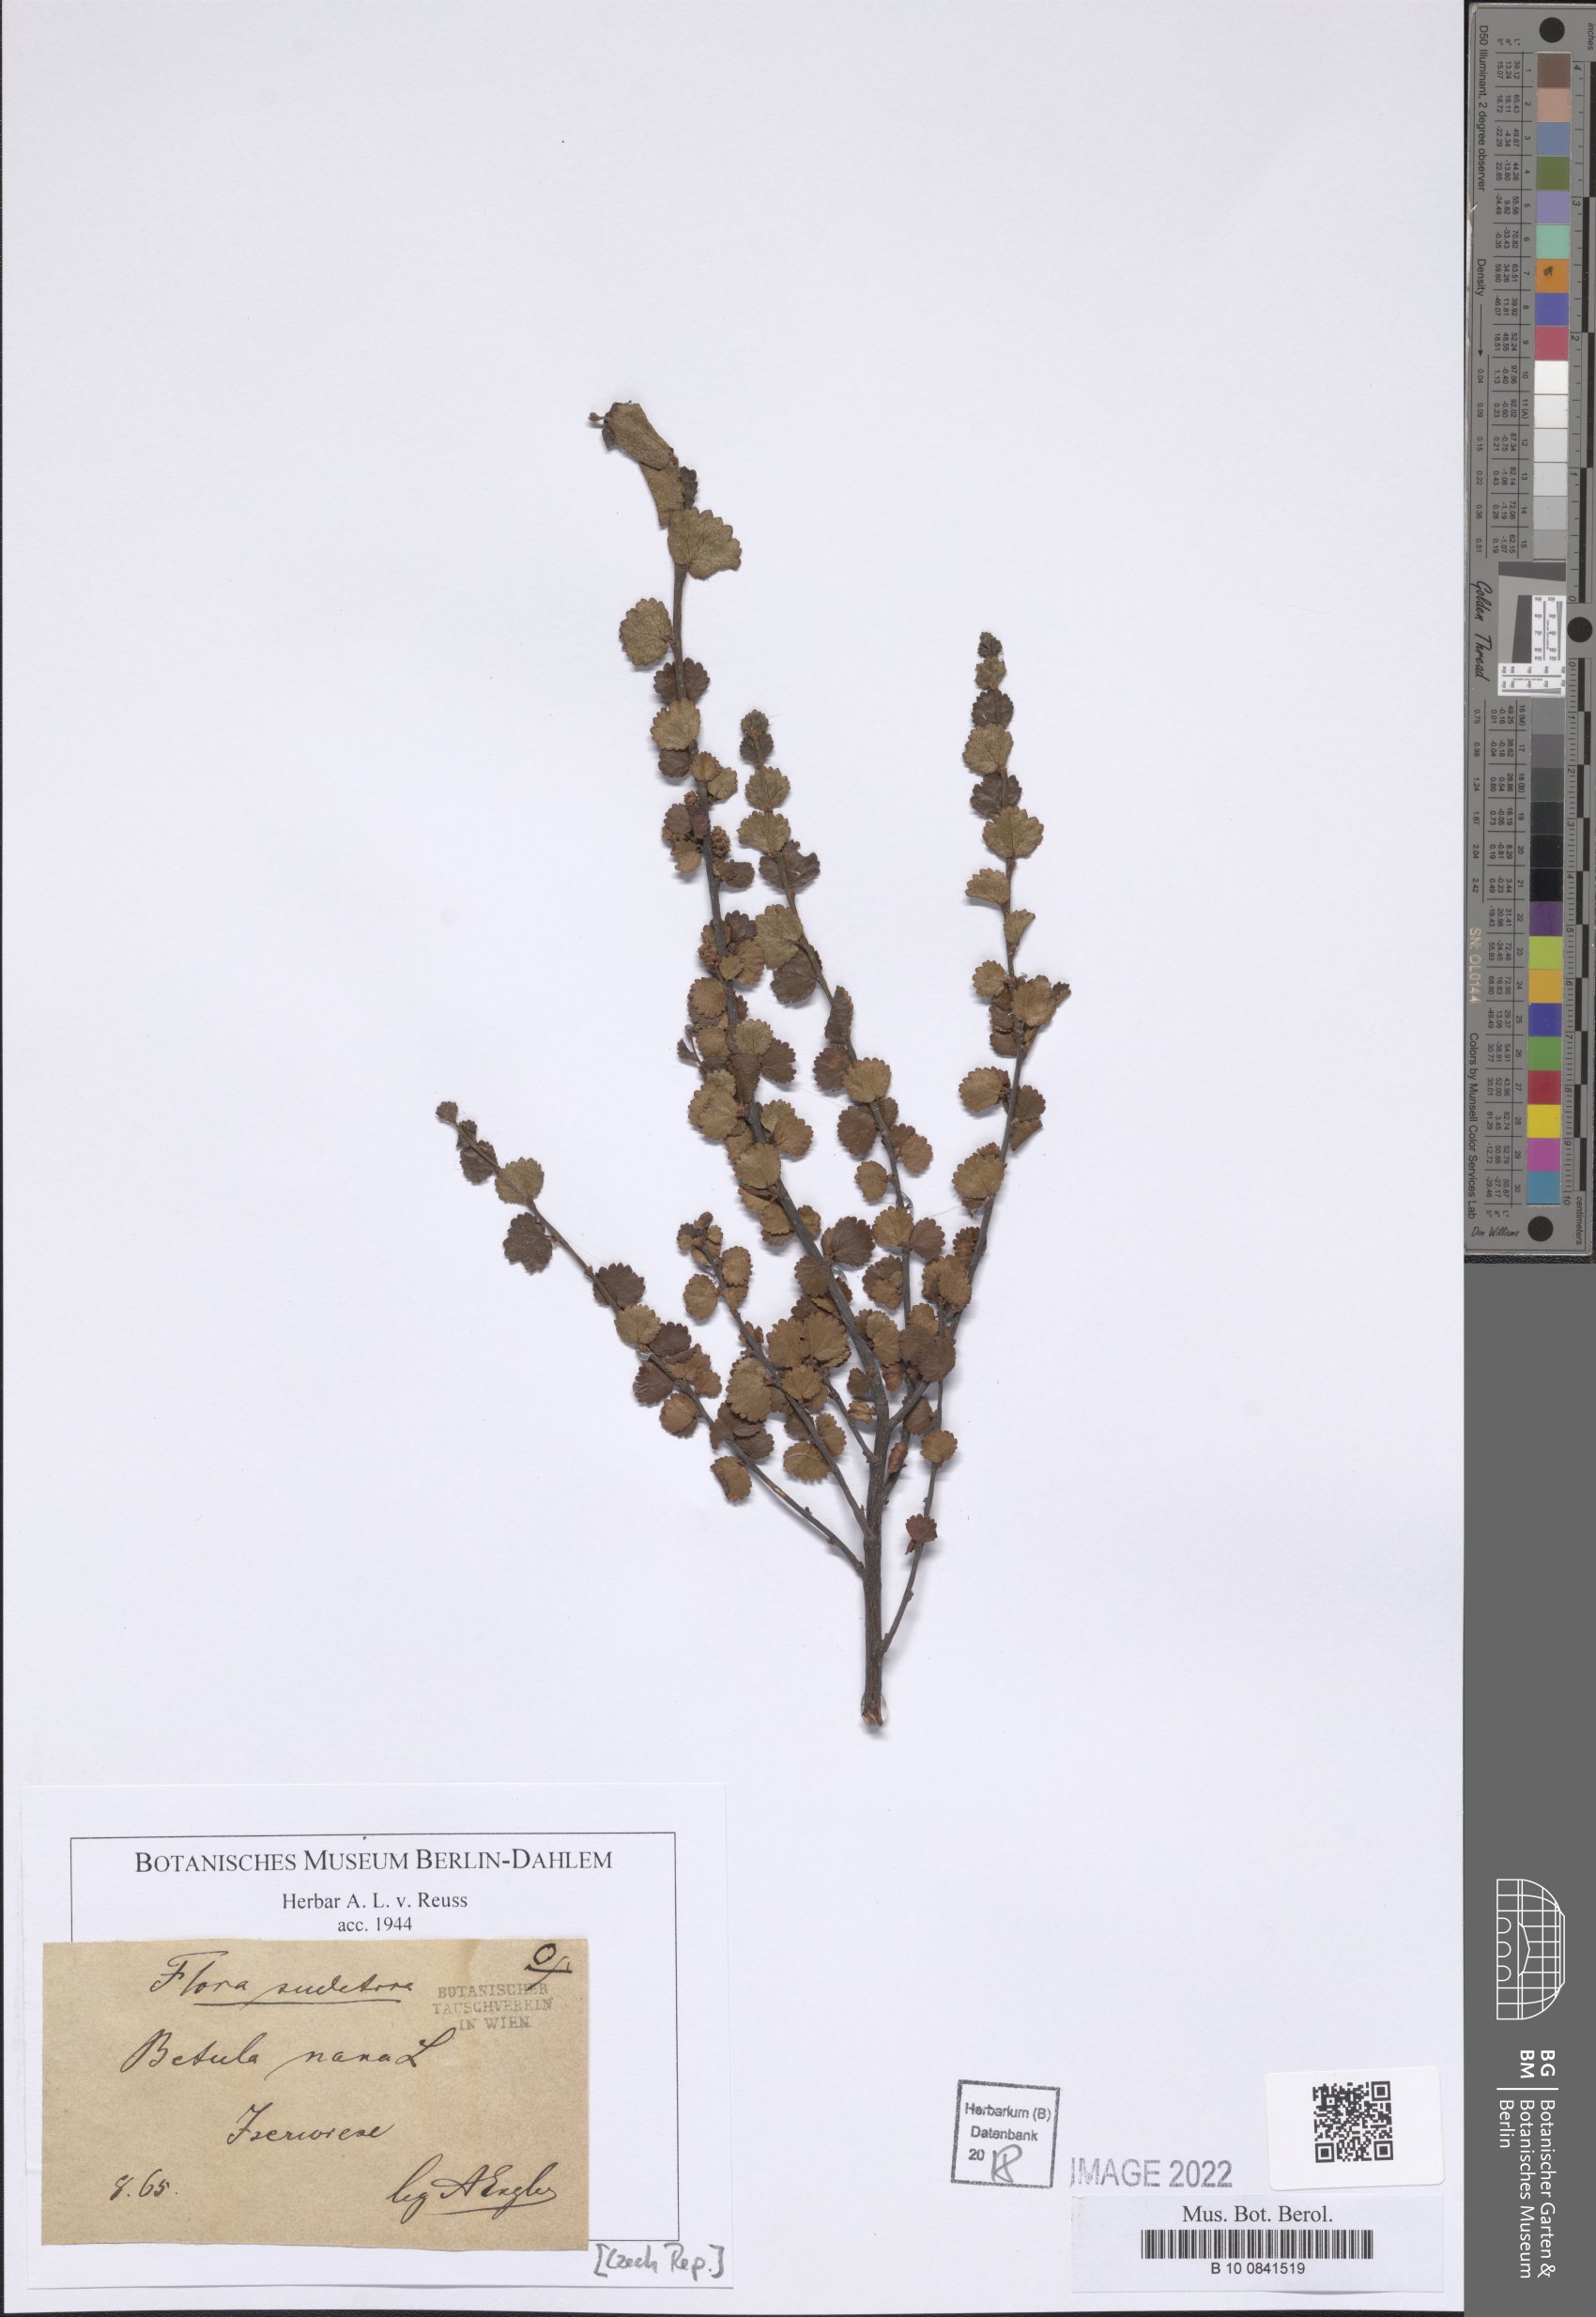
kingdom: Plantae
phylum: Tracheophyta
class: Magnoliopsida
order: Fagales
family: Betulaceae
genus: Betula
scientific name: Betula nana
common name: Arctic dwarf birch
